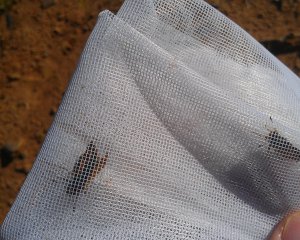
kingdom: Animalia
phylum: Arthropoda
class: Insecta
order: Lepidoptera
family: Hesperiidae
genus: Polites
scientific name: Polites
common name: Long Dash Skipper
